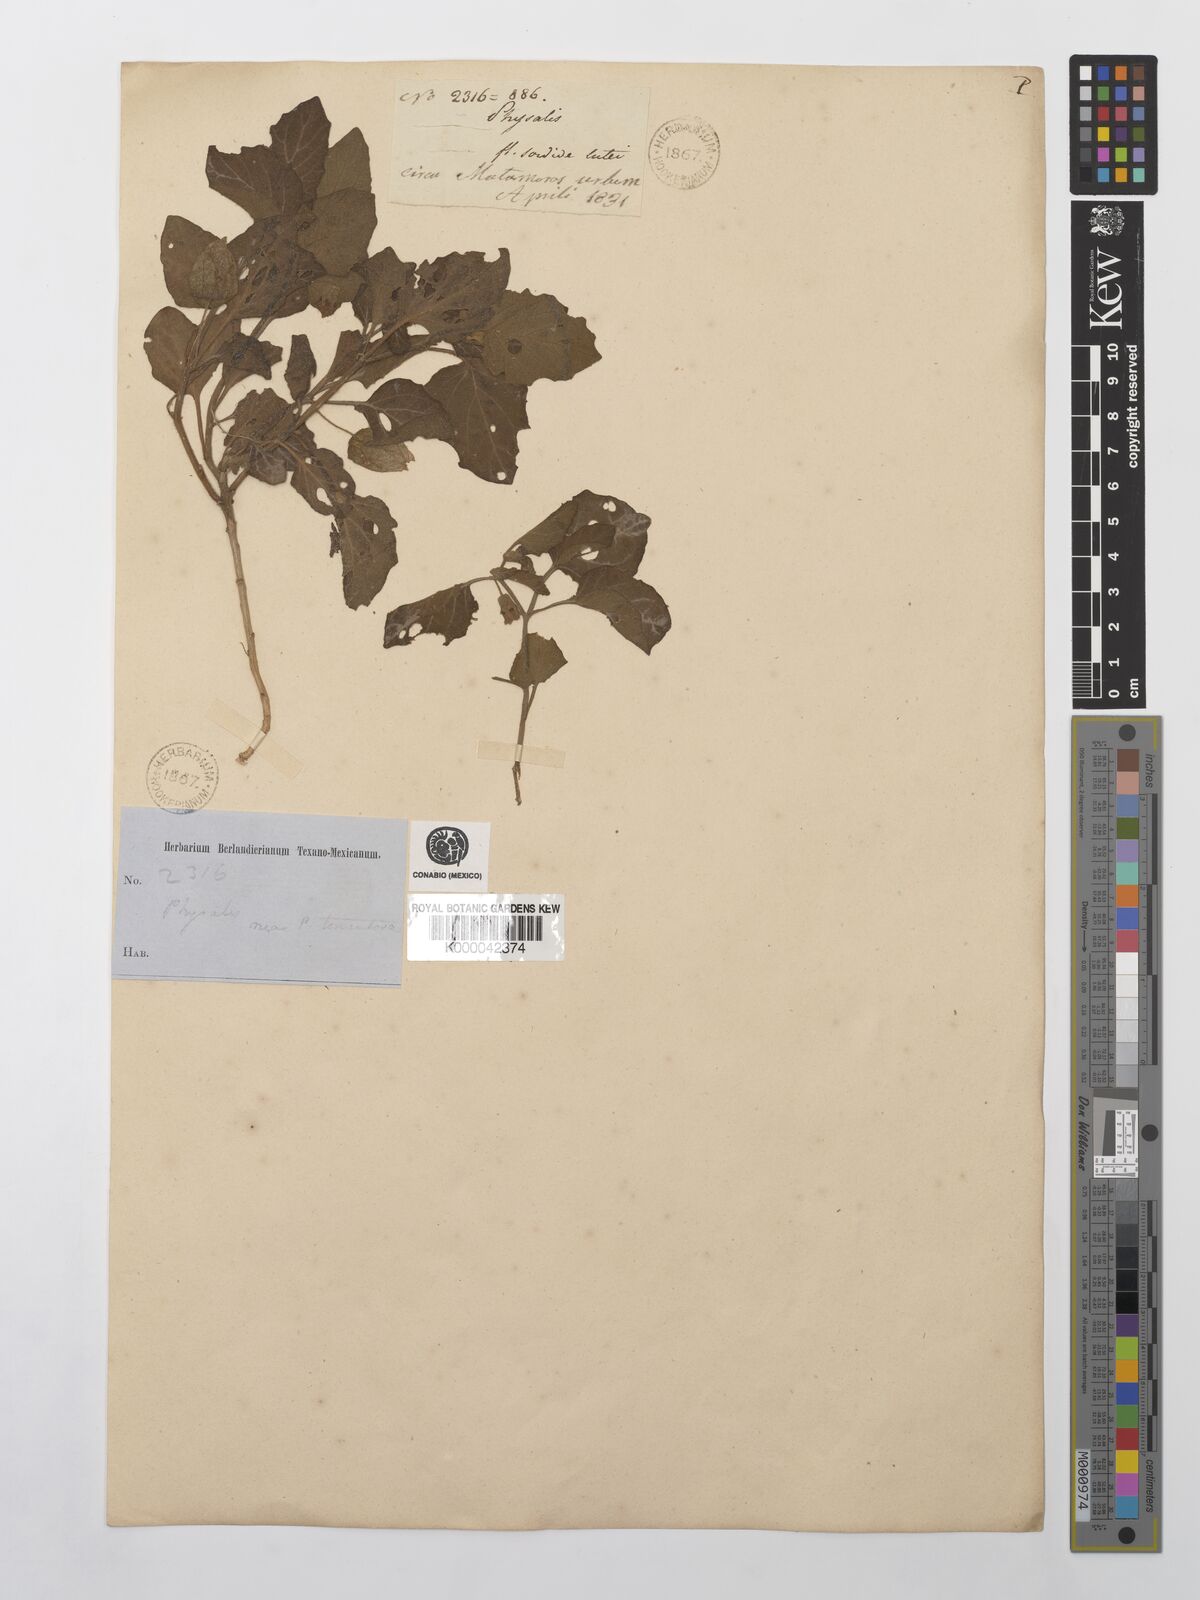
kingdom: Plantae
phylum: Tracheophyta
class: Magnoliopsida
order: Solanales
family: Solanaceae
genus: Physalis
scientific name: Physalis cinerascens
